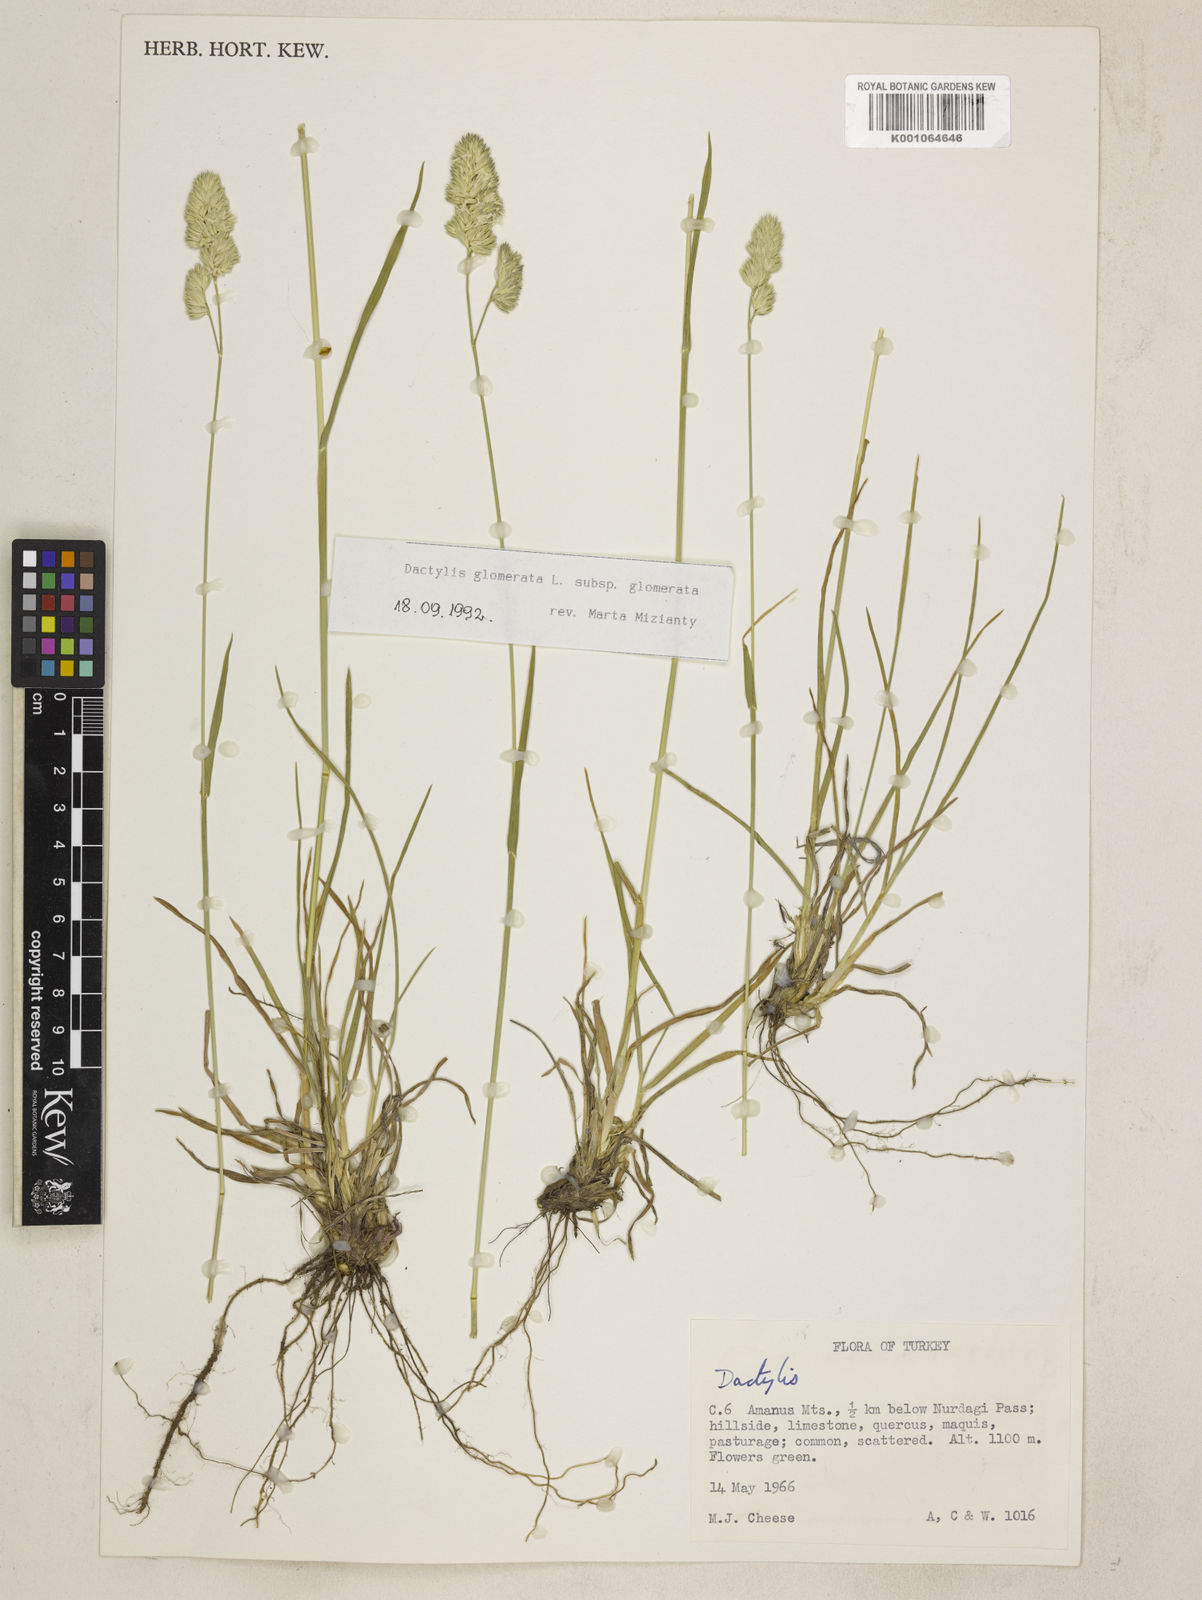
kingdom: Plantae
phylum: Tracheophyta
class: Liliopsida
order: Poales
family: Poaceae
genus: Dactylis
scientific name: Dactylis glomerata
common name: Orchardgrass
